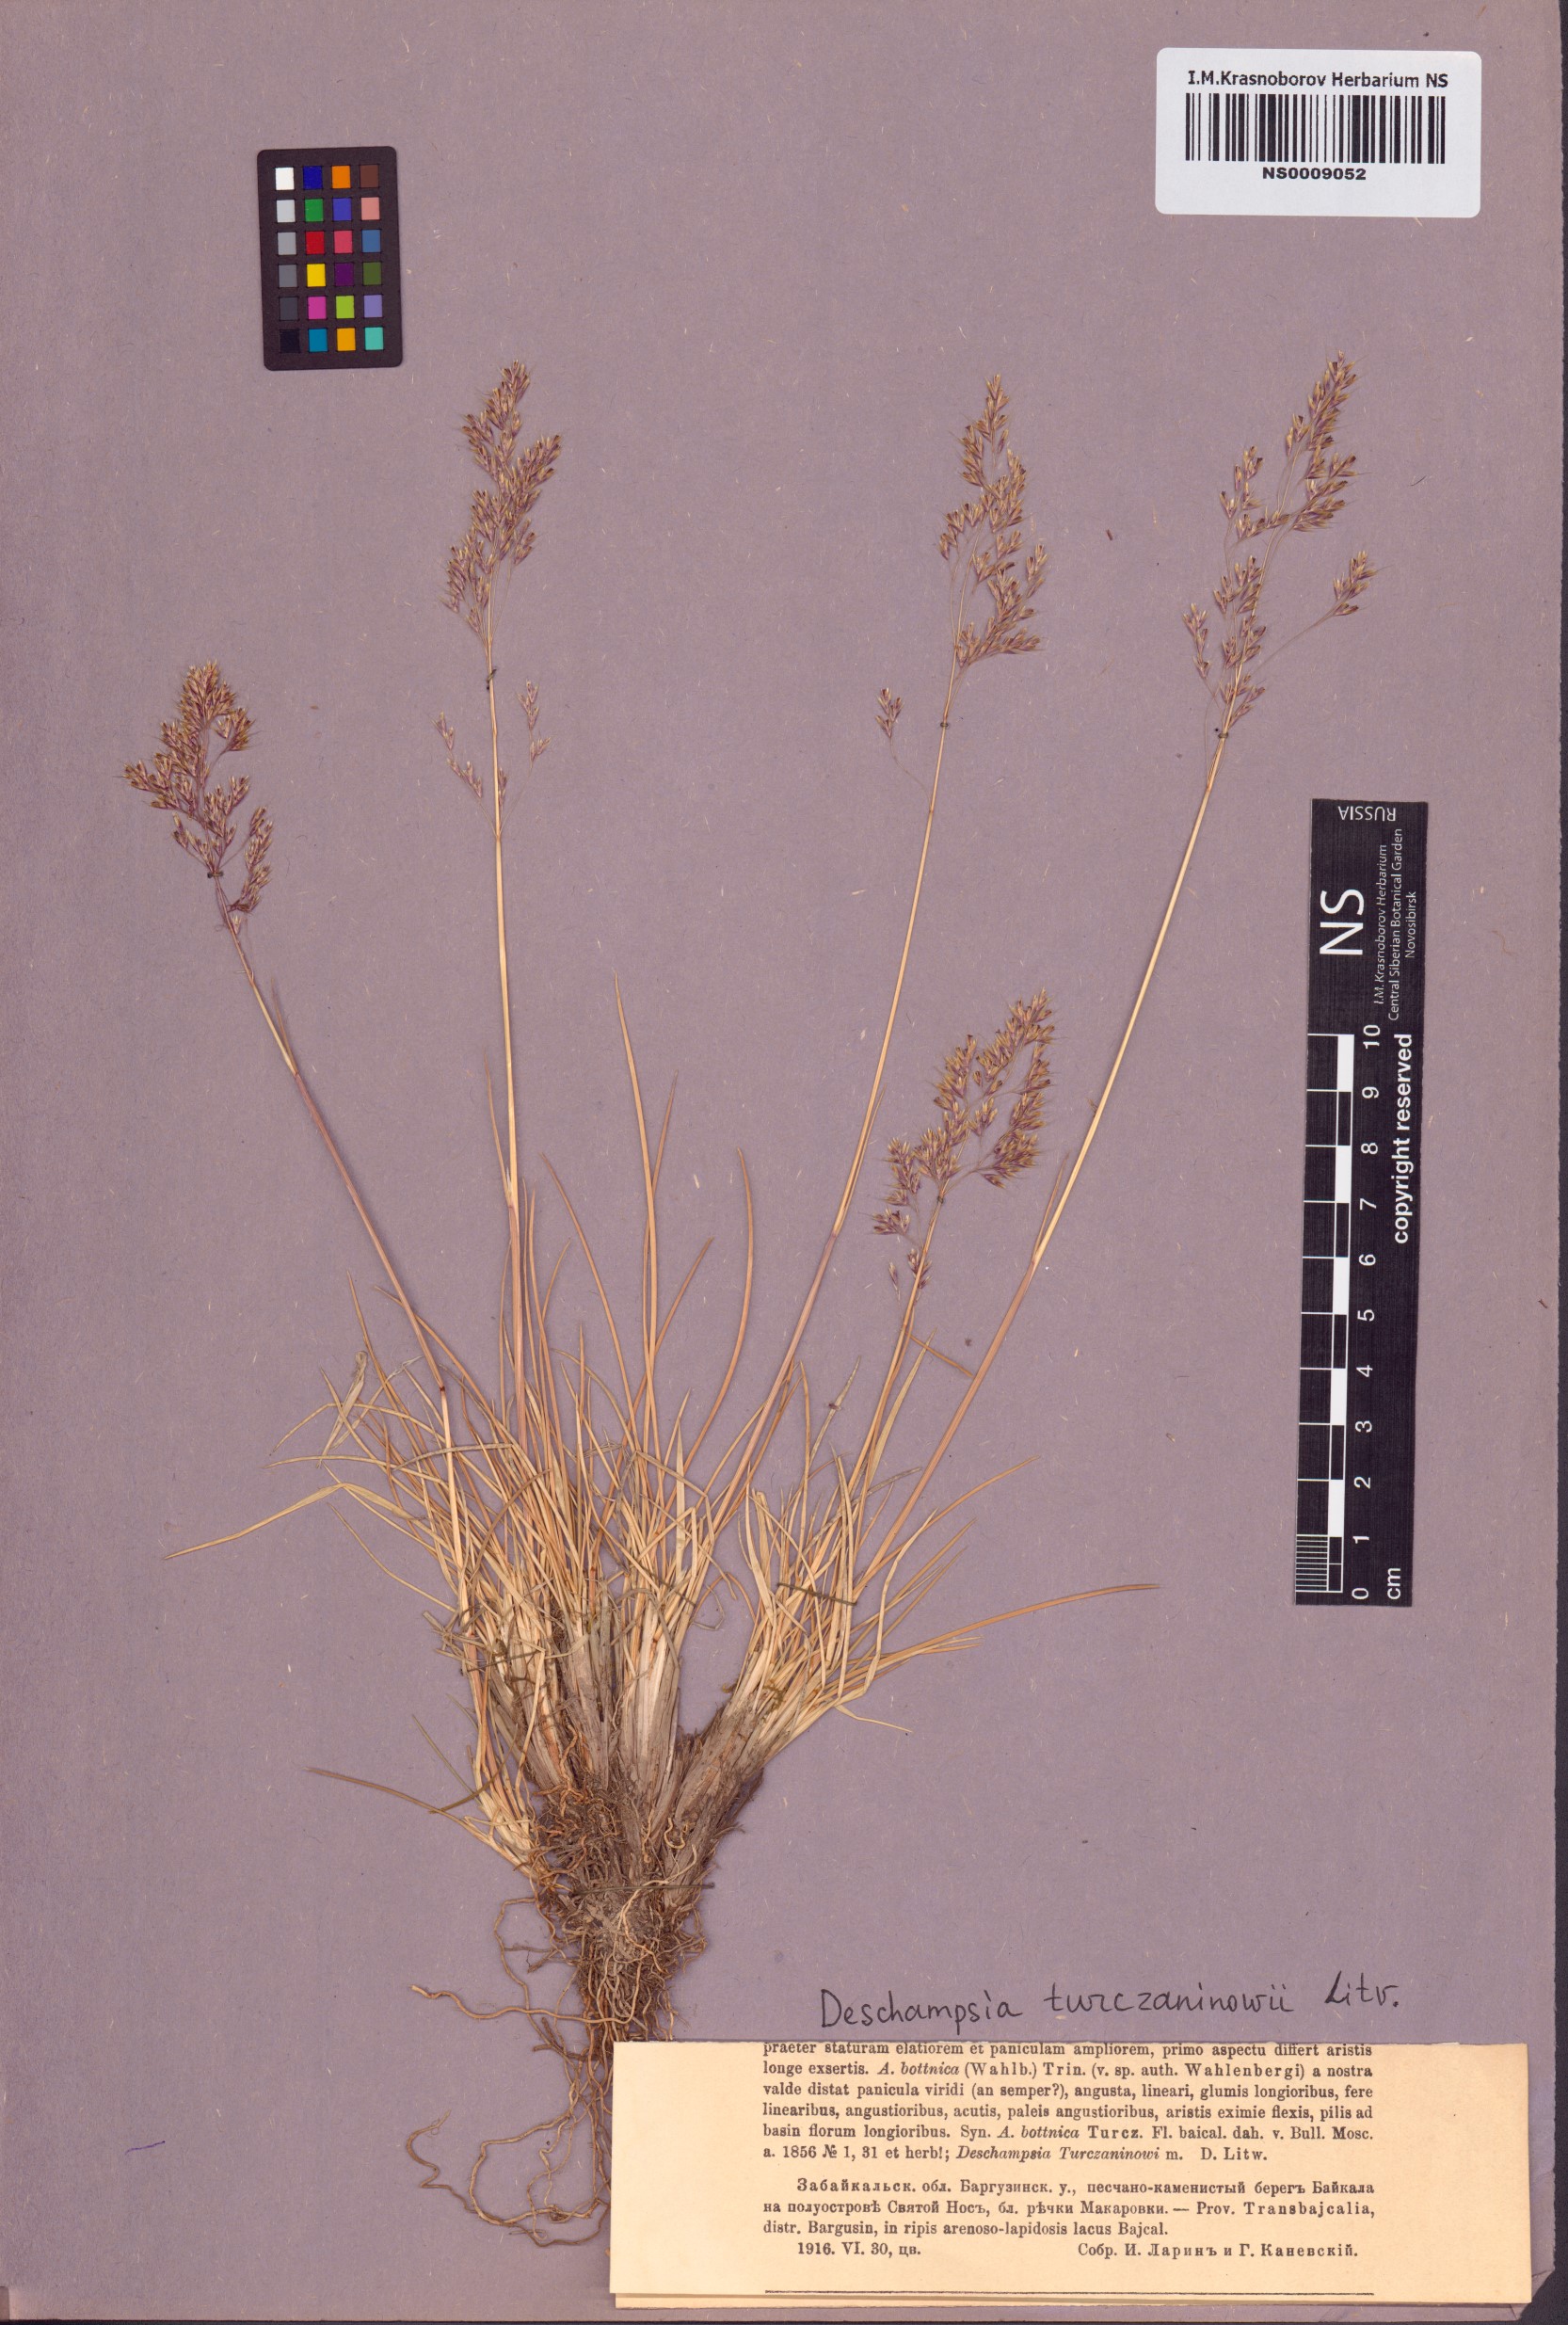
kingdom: Plantae
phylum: Tracheophyta
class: Liliopsida
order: Poales
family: Poaceae
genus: Deschampsia
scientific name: Deschampsia cespitosa
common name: Tufted hair-grass
